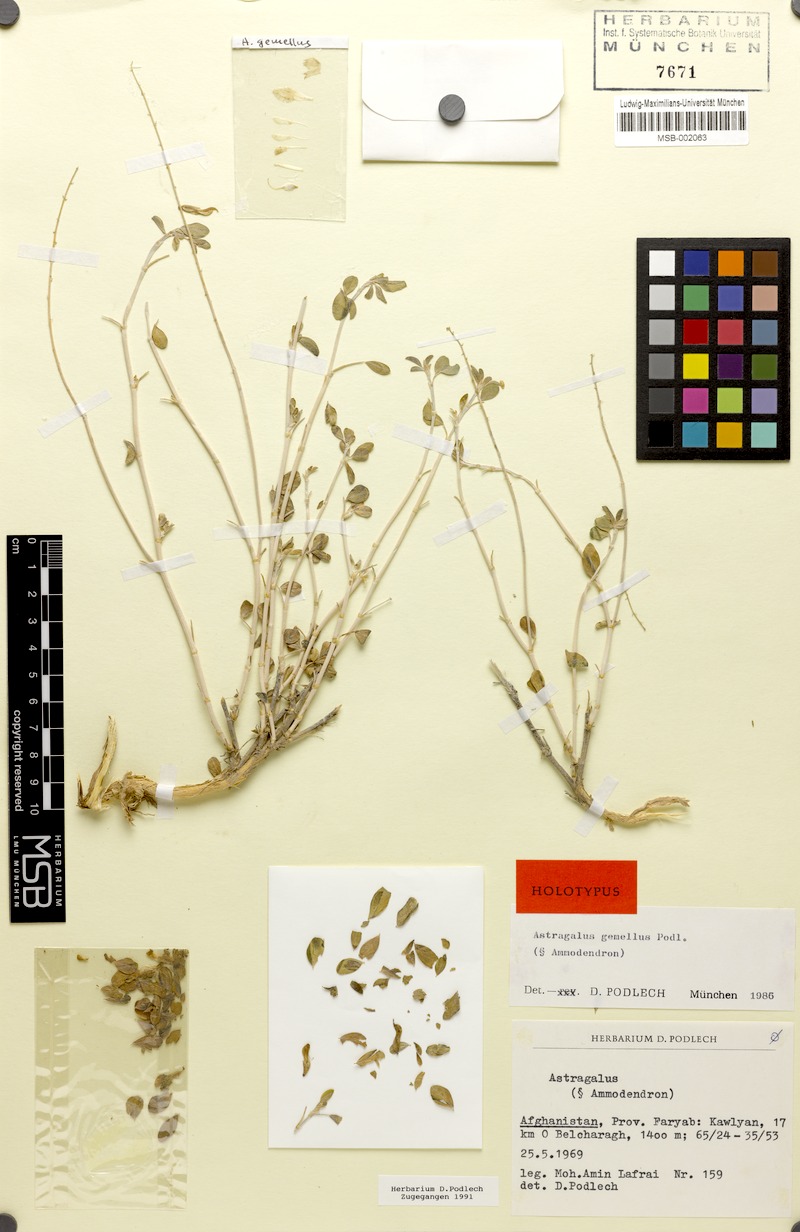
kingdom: Plantae
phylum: Tracheophyta
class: Magnoliopsida
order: Fabales
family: Fabaceae
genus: Astragalus
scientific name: Astragalus gemellus
